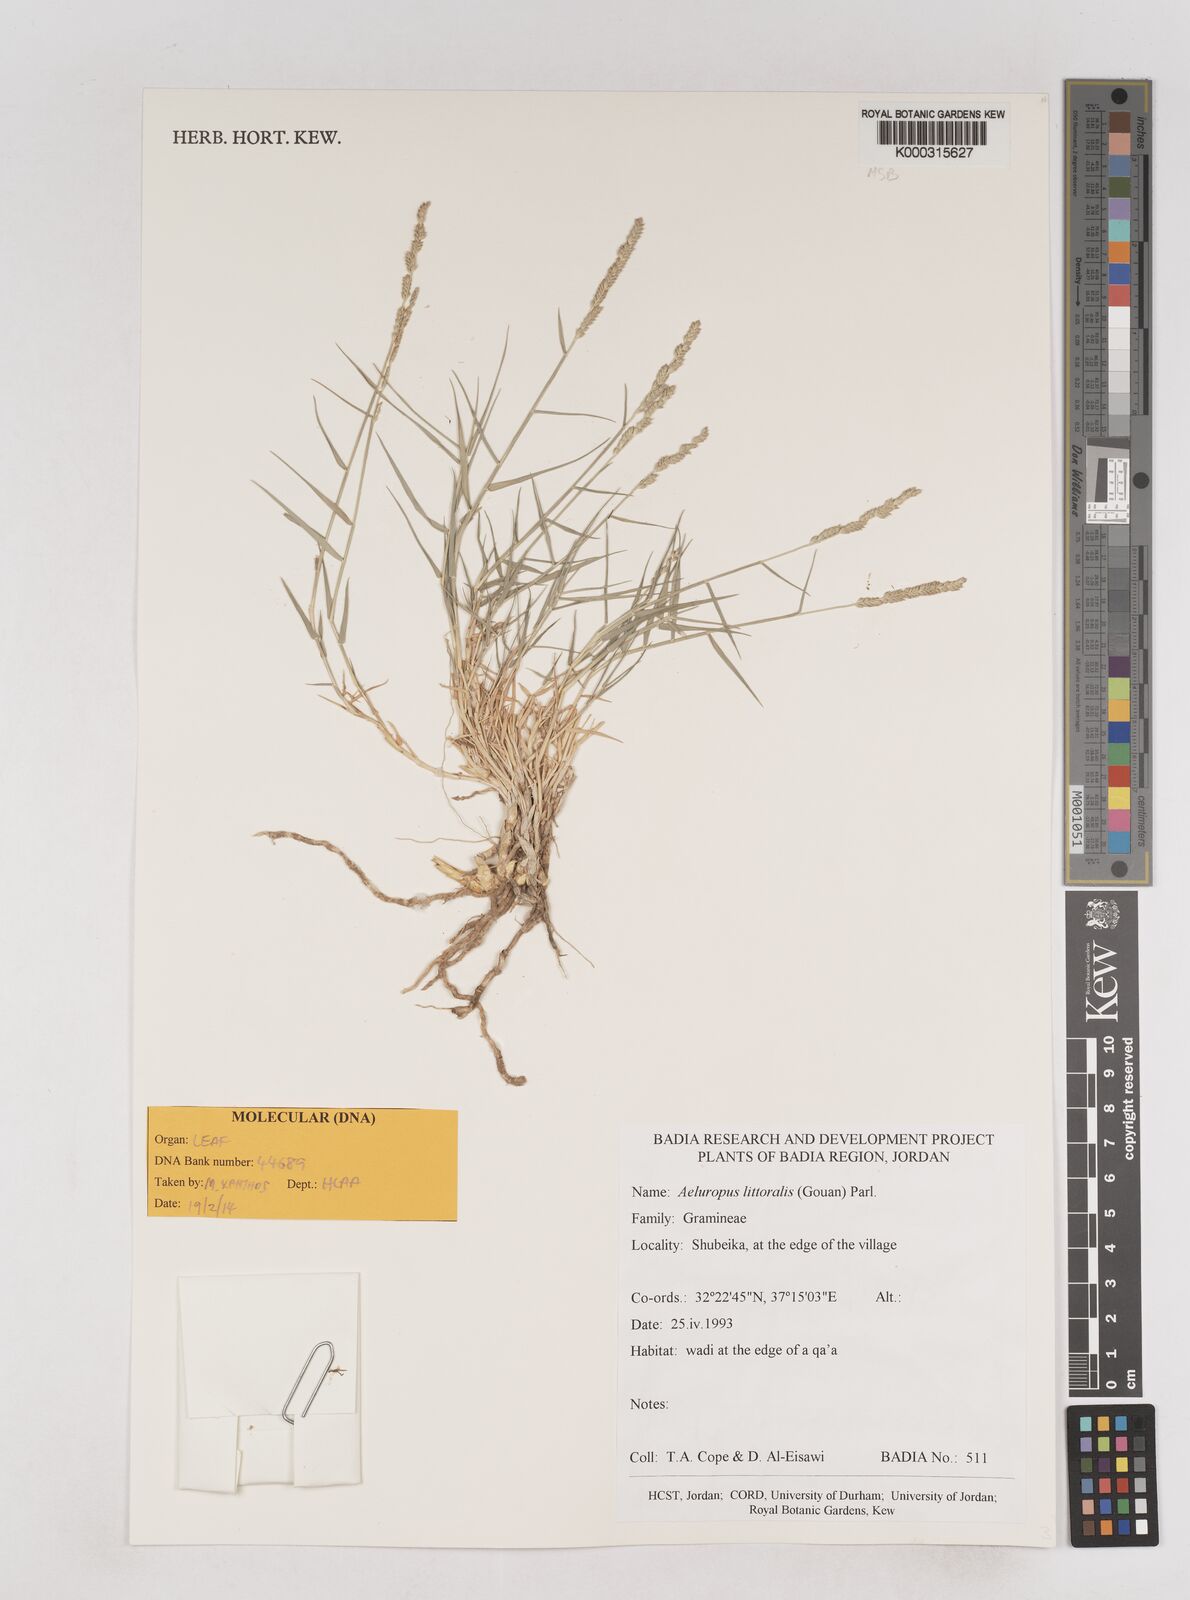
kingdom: Plantae
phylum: Tracheophyta
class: Liliopsida
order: Poales
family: Poaceae
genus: Aeluropus
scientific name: Aeluropus littoralis
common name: Indian walnut
